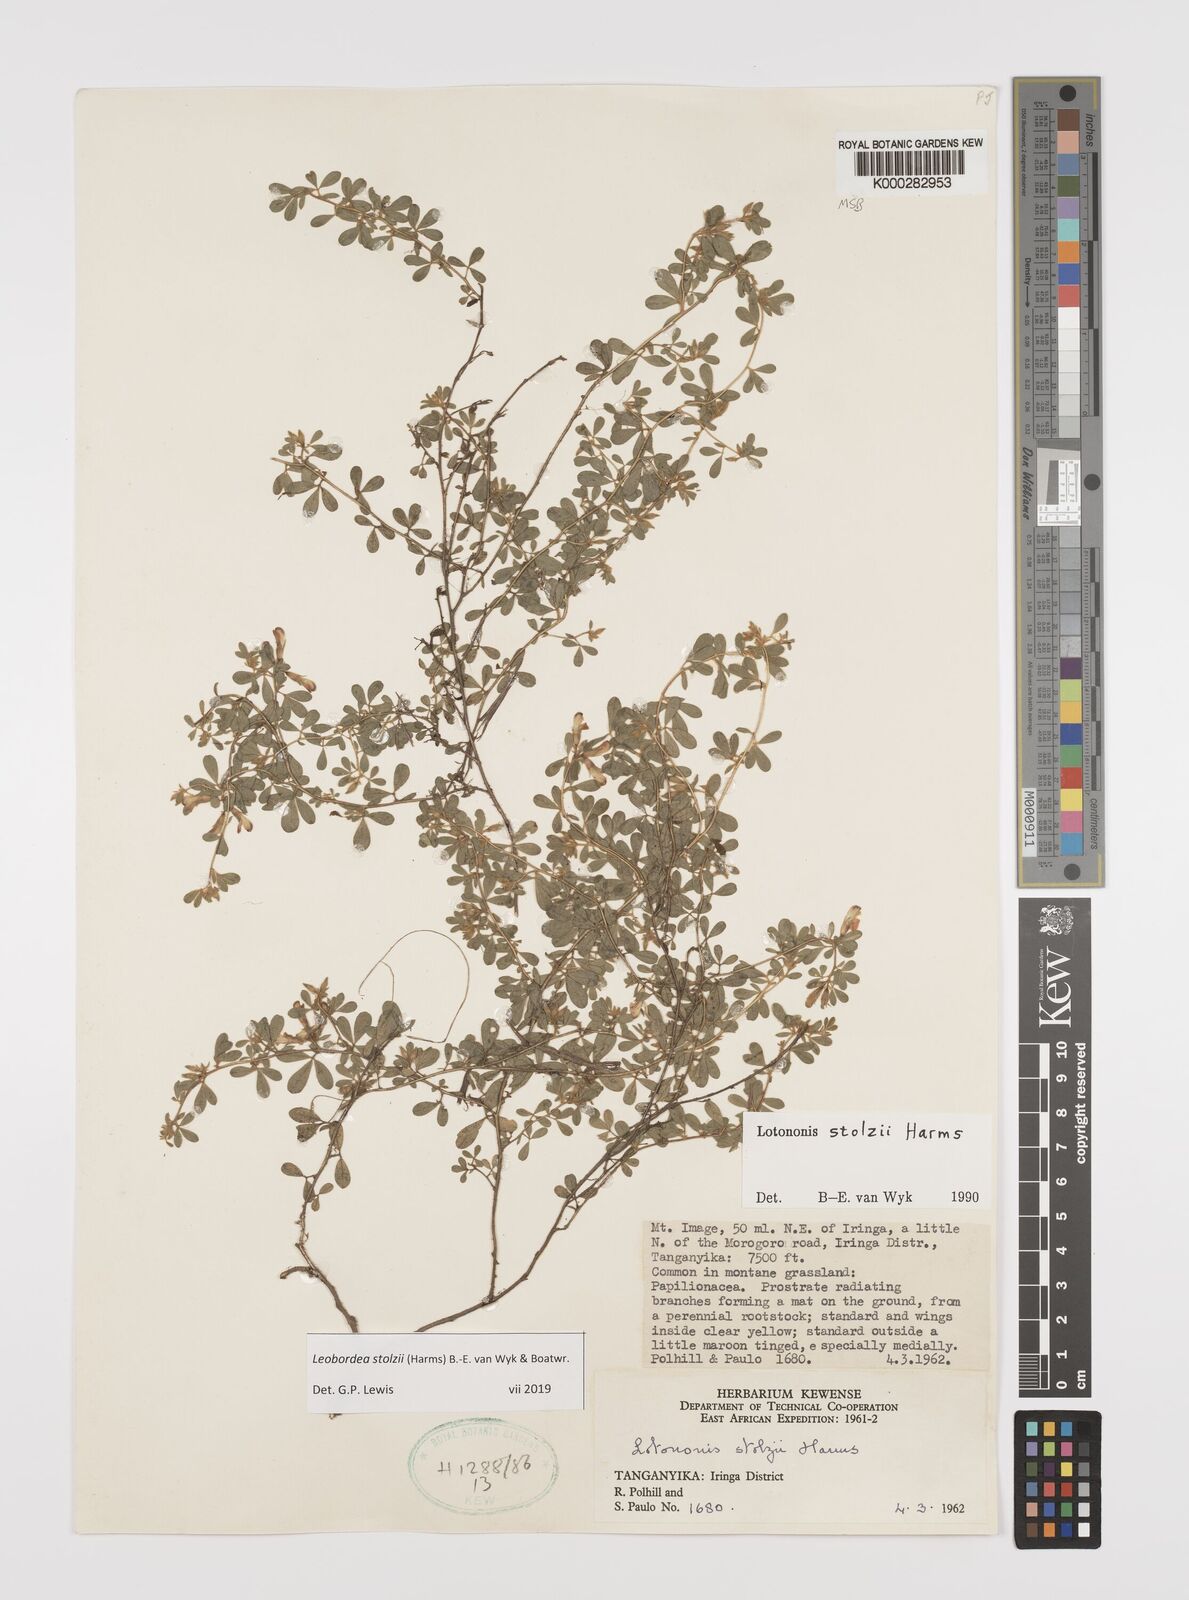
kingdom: Plantae
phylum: Tracheophyta
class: Magnoliopsida
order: Fabales
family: Fabaceae
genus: Leobordea
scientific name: Leobordea stolzii
